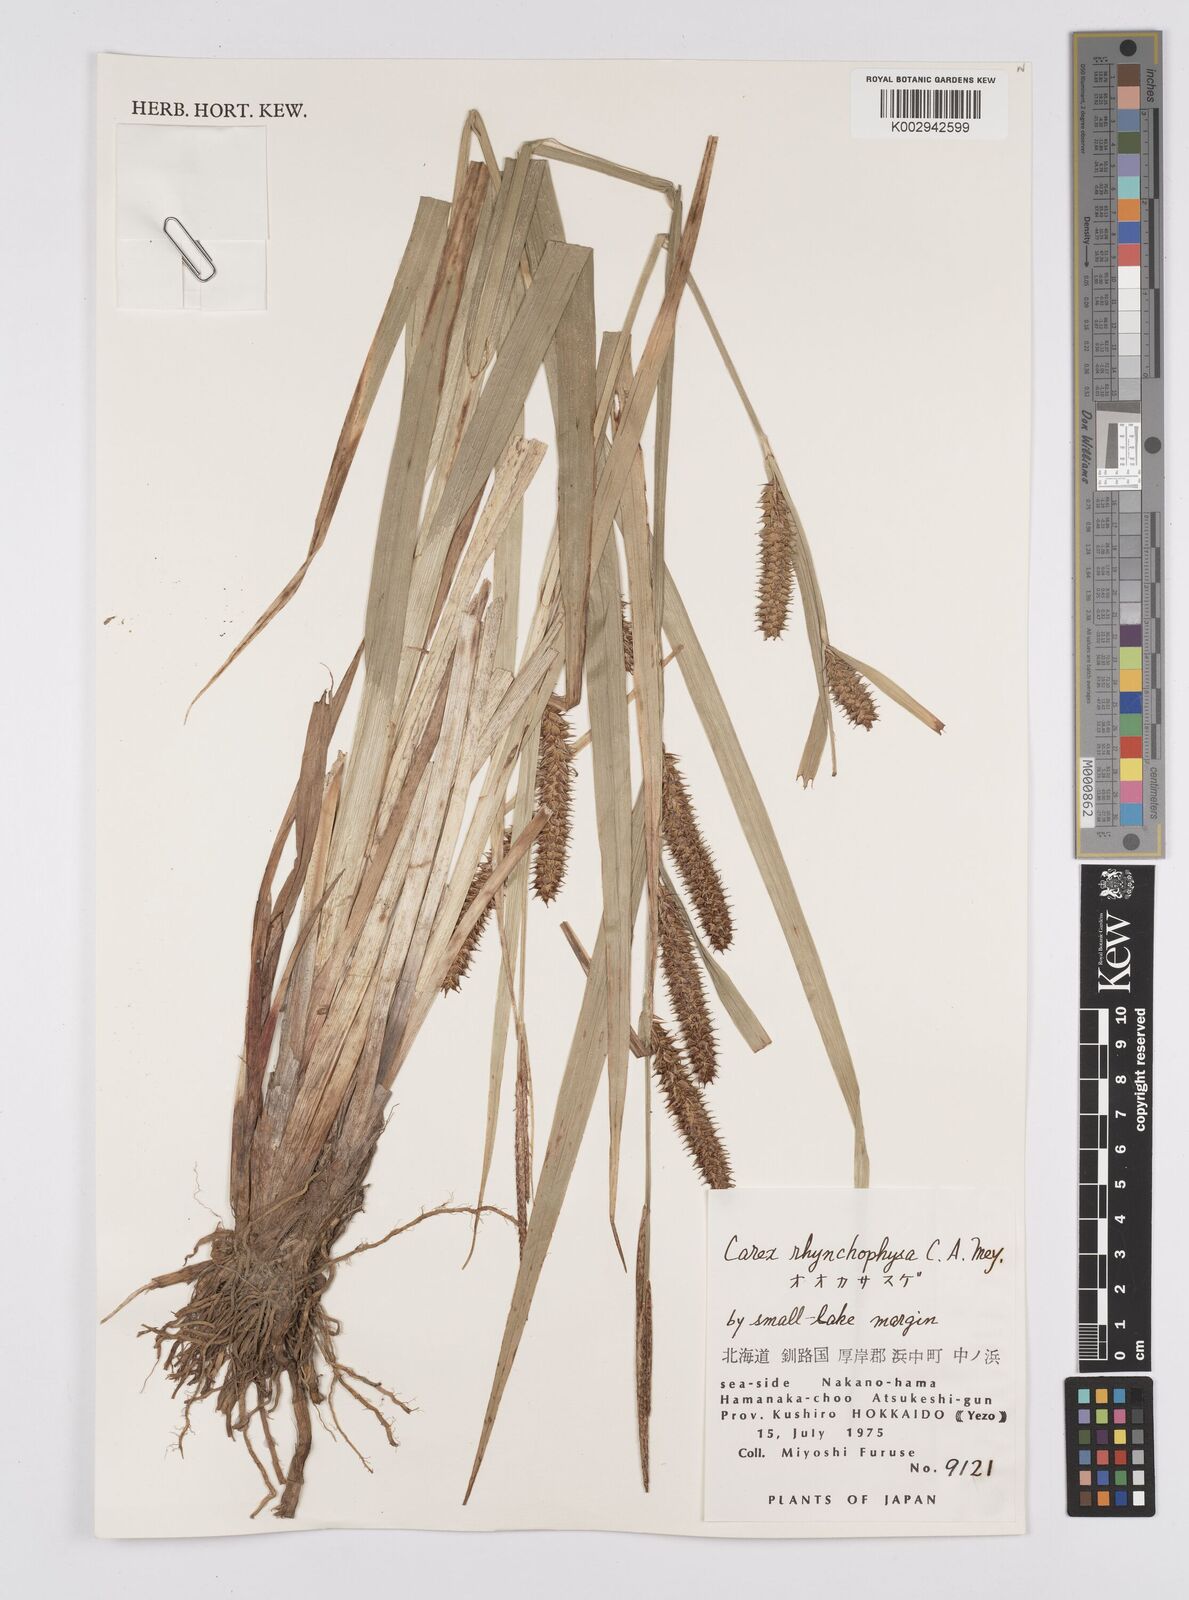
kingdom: Plantae
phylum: Tracheophyta
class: Liliopsida
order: Poales
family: Cyperaceae
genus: Carex
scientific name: Carex utriculata
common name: Beaked sedge
